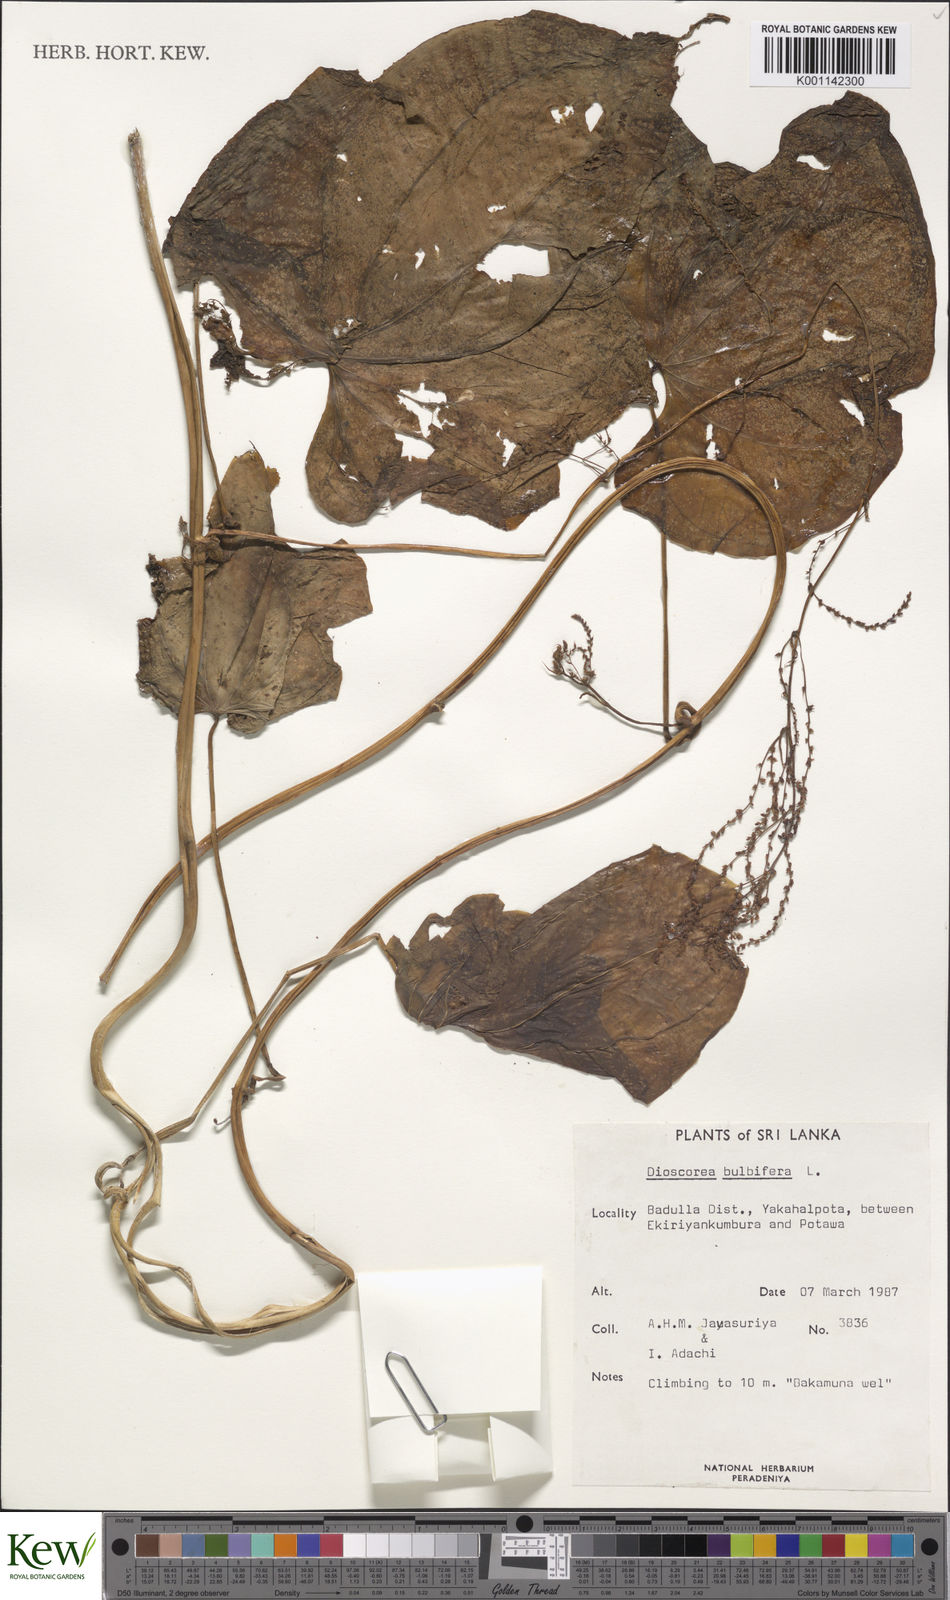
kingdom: Plantae
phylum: Tracheophyta
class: Liliopsida
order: Dioscoreales
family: Dioscoreaceae
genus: Dioscorea
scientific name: Dioscorea bulbifera
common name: Air yam
